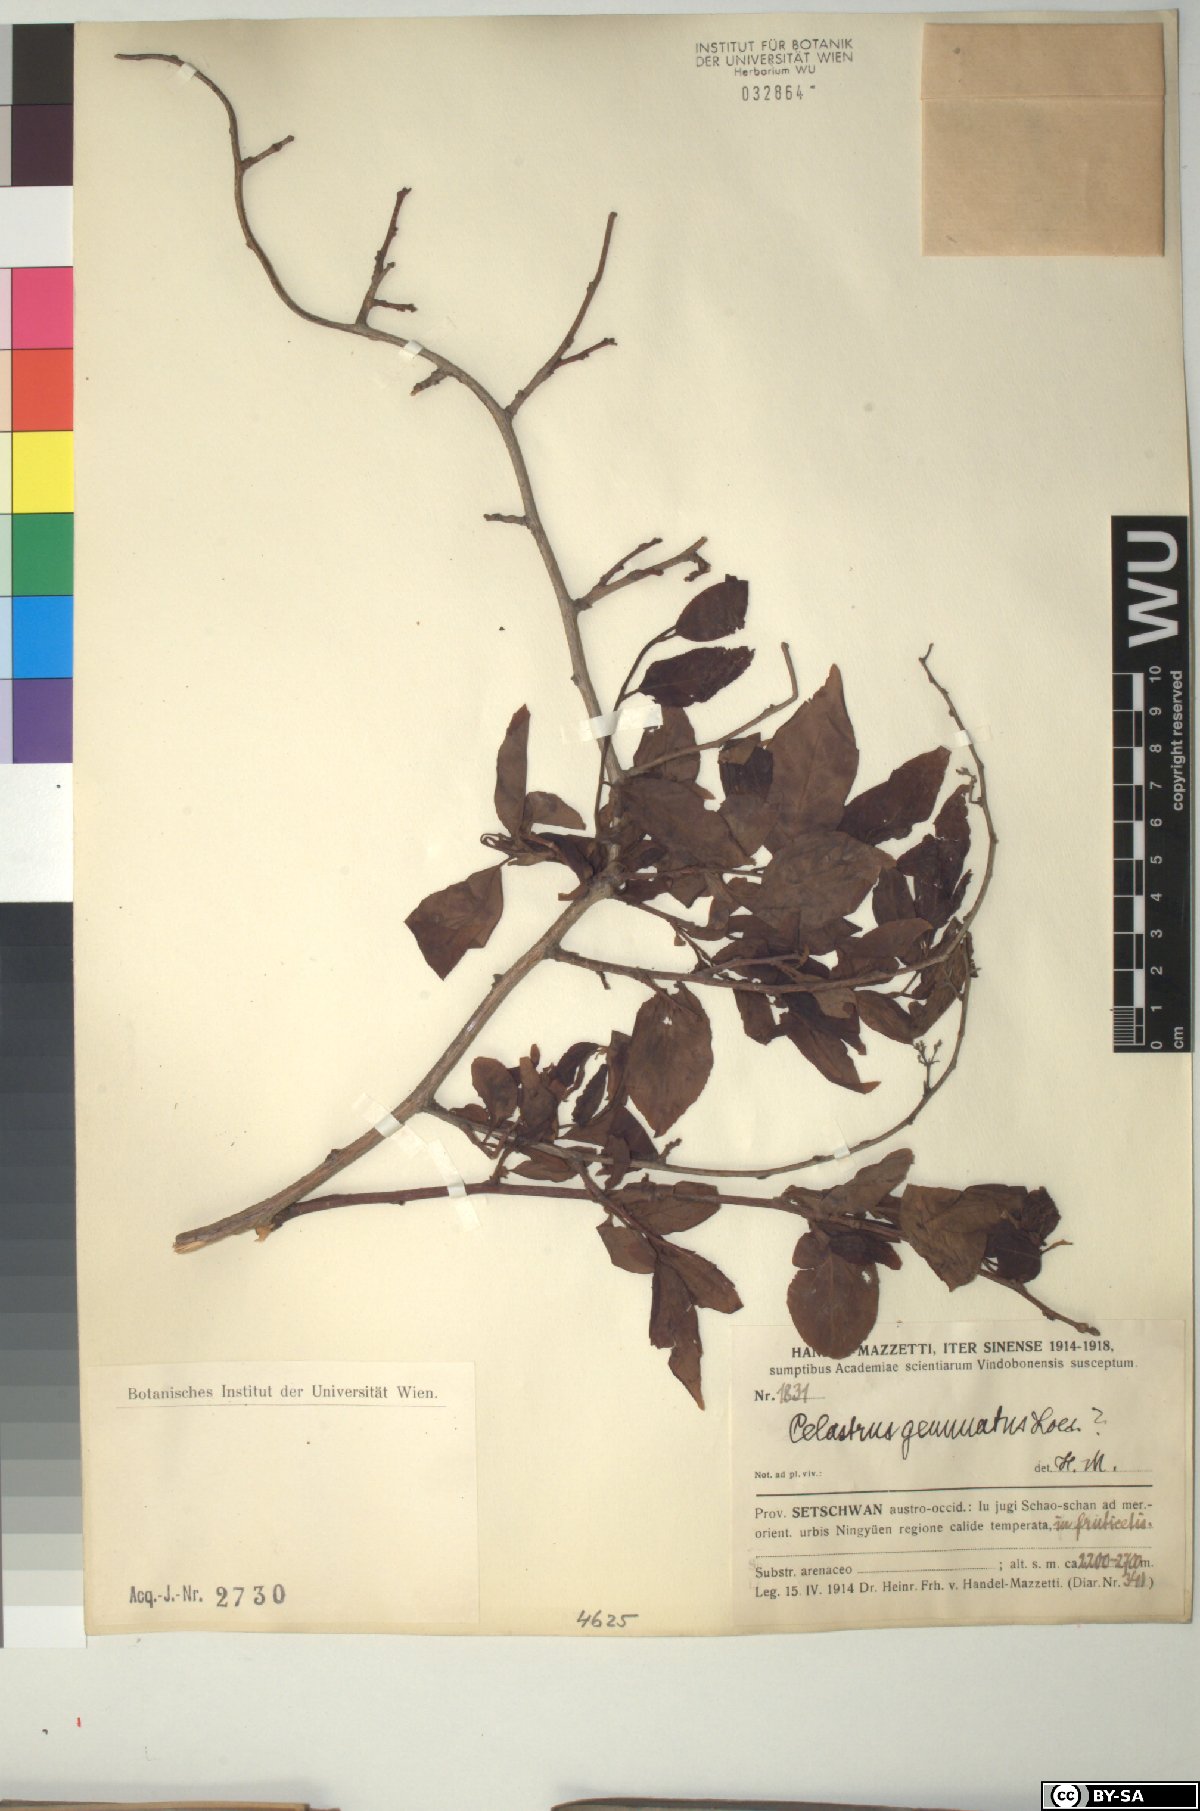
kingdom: Plantae
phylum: Tracheophyta
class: Magnoliopsida
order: Celastrales
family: Celastraceae
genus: Celastrus
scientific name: Celastrus gemmatus
